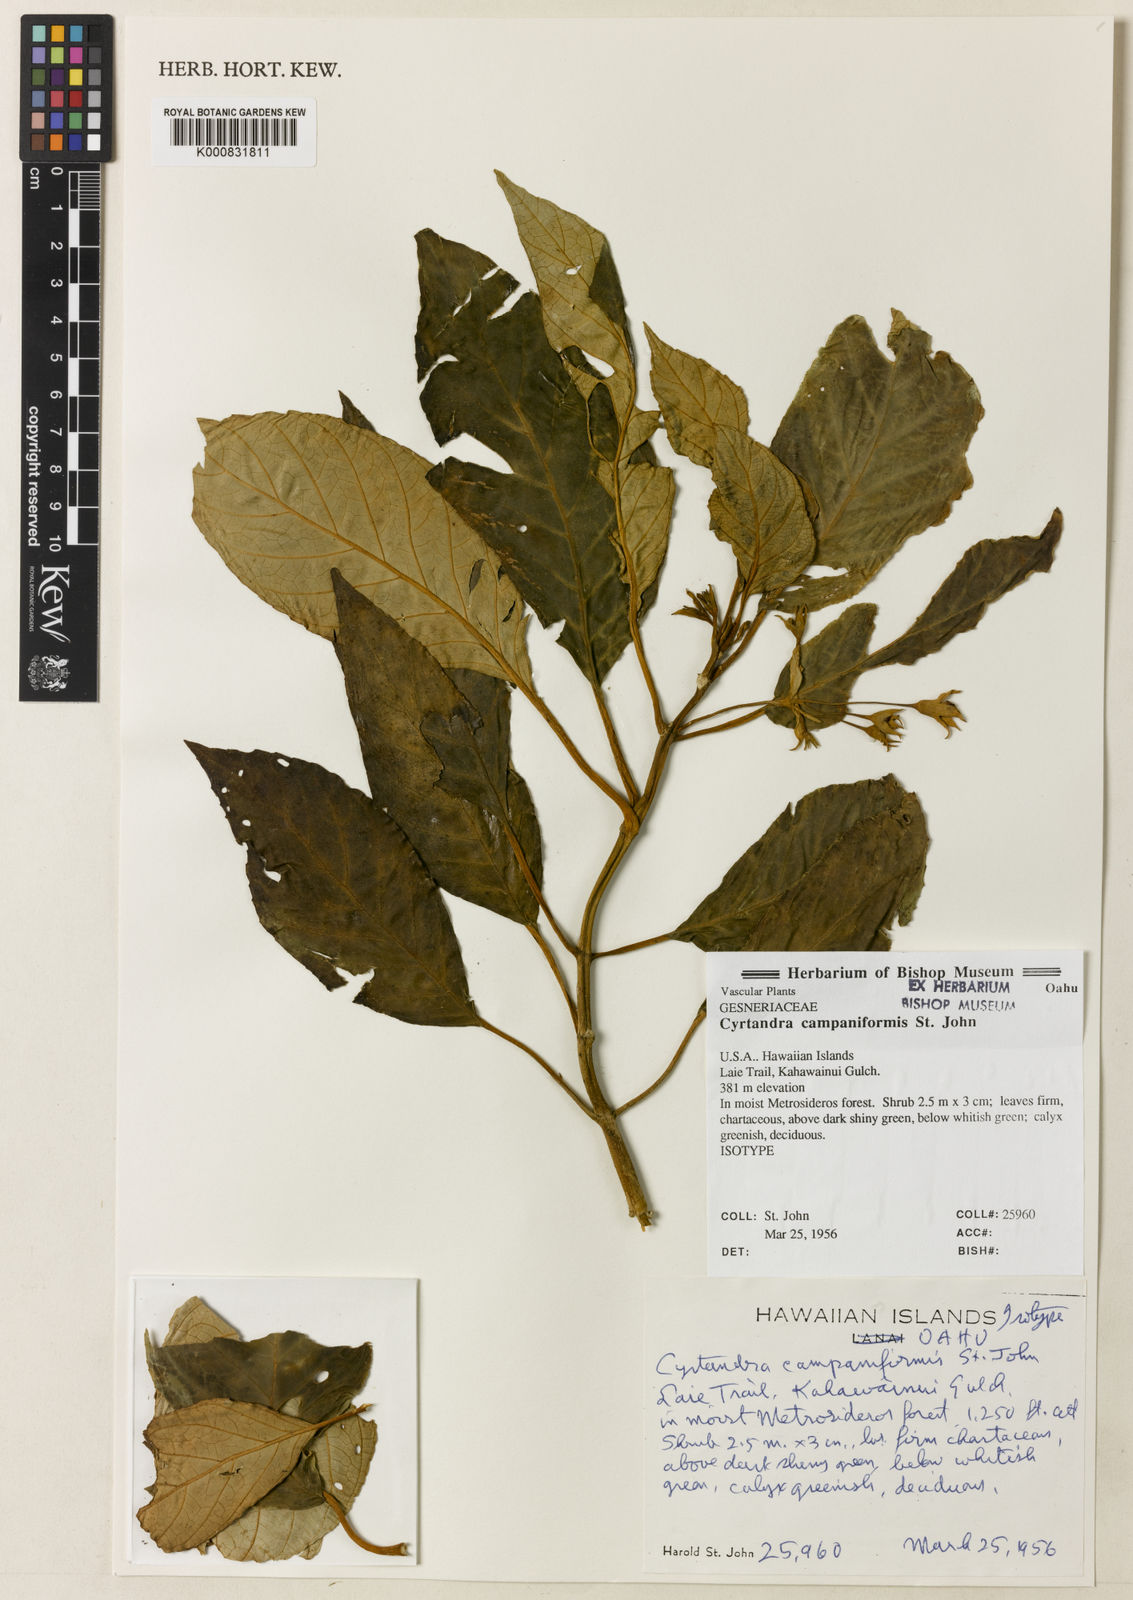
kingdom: Plantae
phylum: Tracheophyta
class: Magnoliopsida
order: Lamiales
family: Gesneriaceae
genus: Cyrtandra
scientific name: Cyrtandra laxiflora
